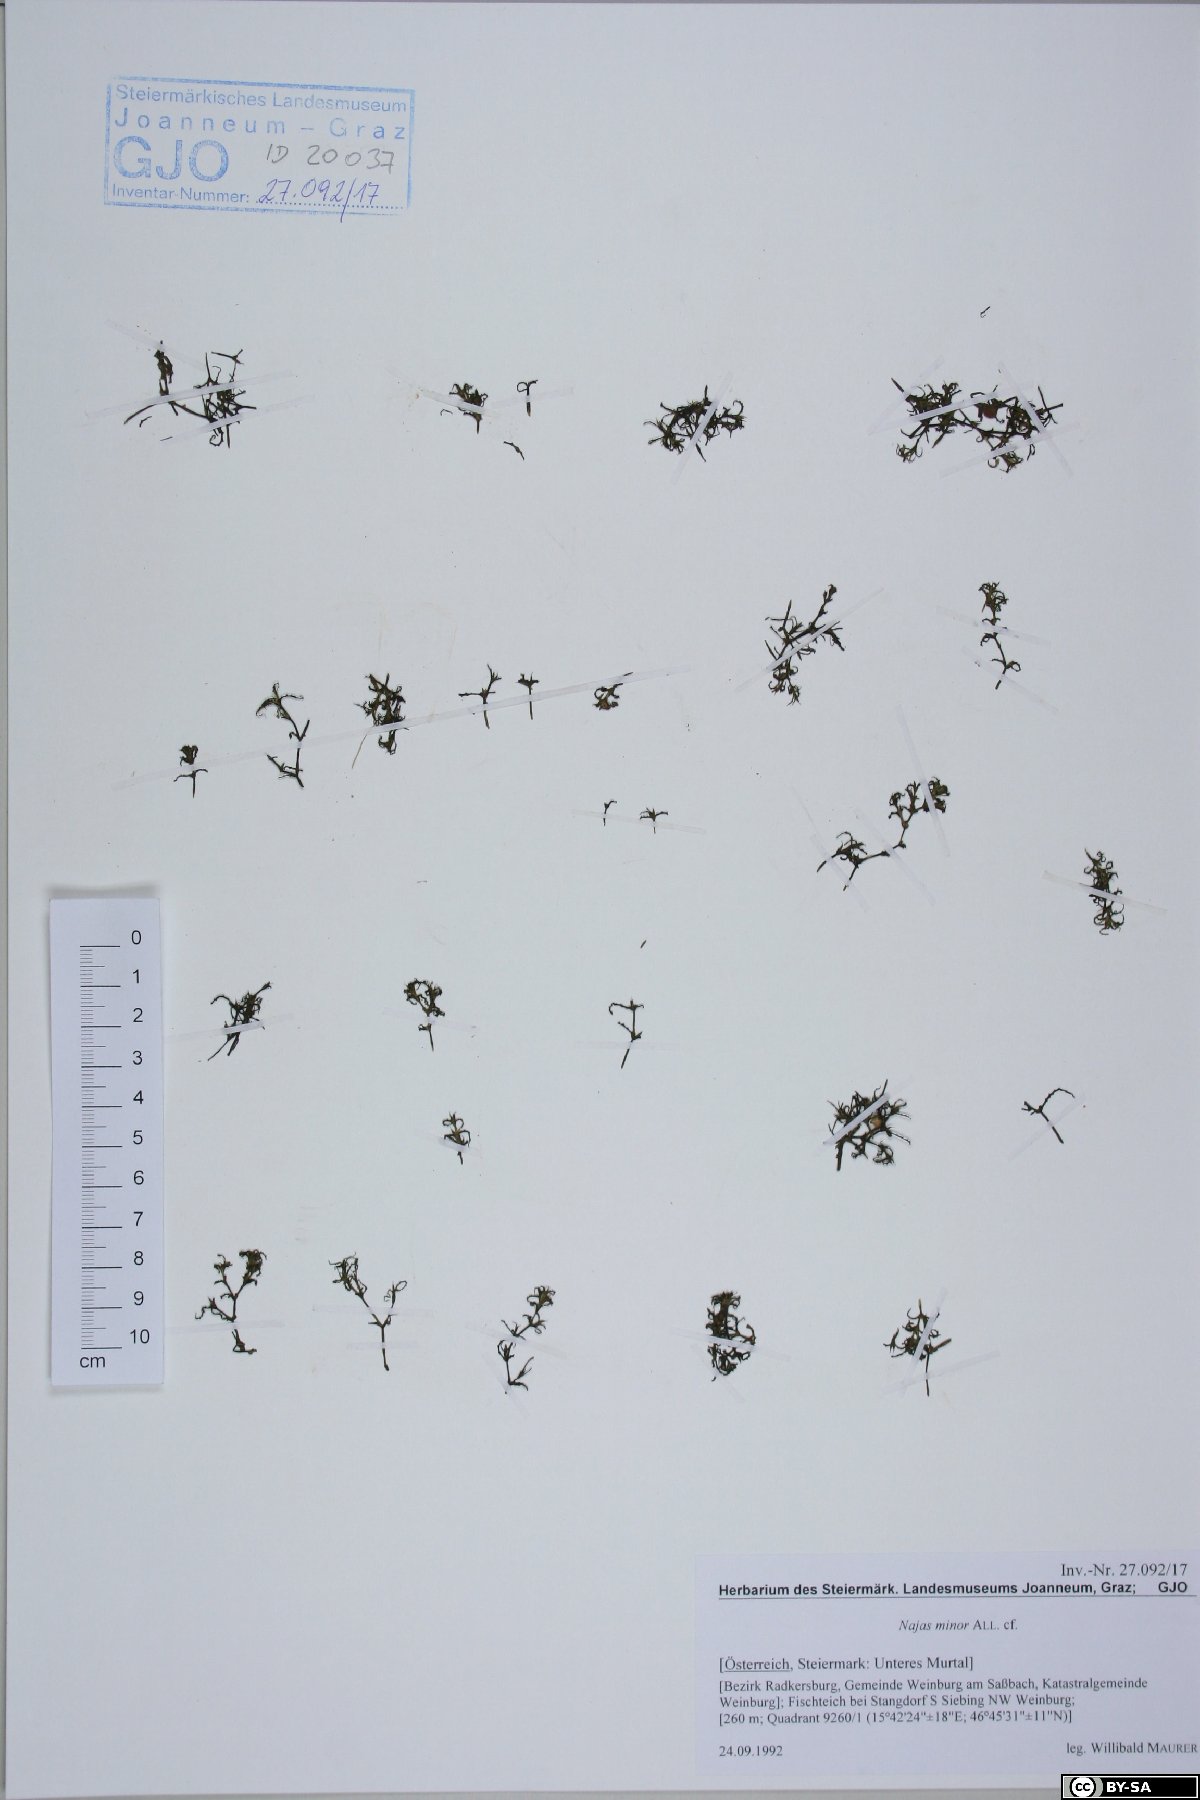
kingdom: Plantae
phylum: Tracheophyta
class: Liliopsida
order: Alismatales
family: Hydrocharitaceae
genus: Najas
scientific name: Najas minor
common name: Brittle naiad
